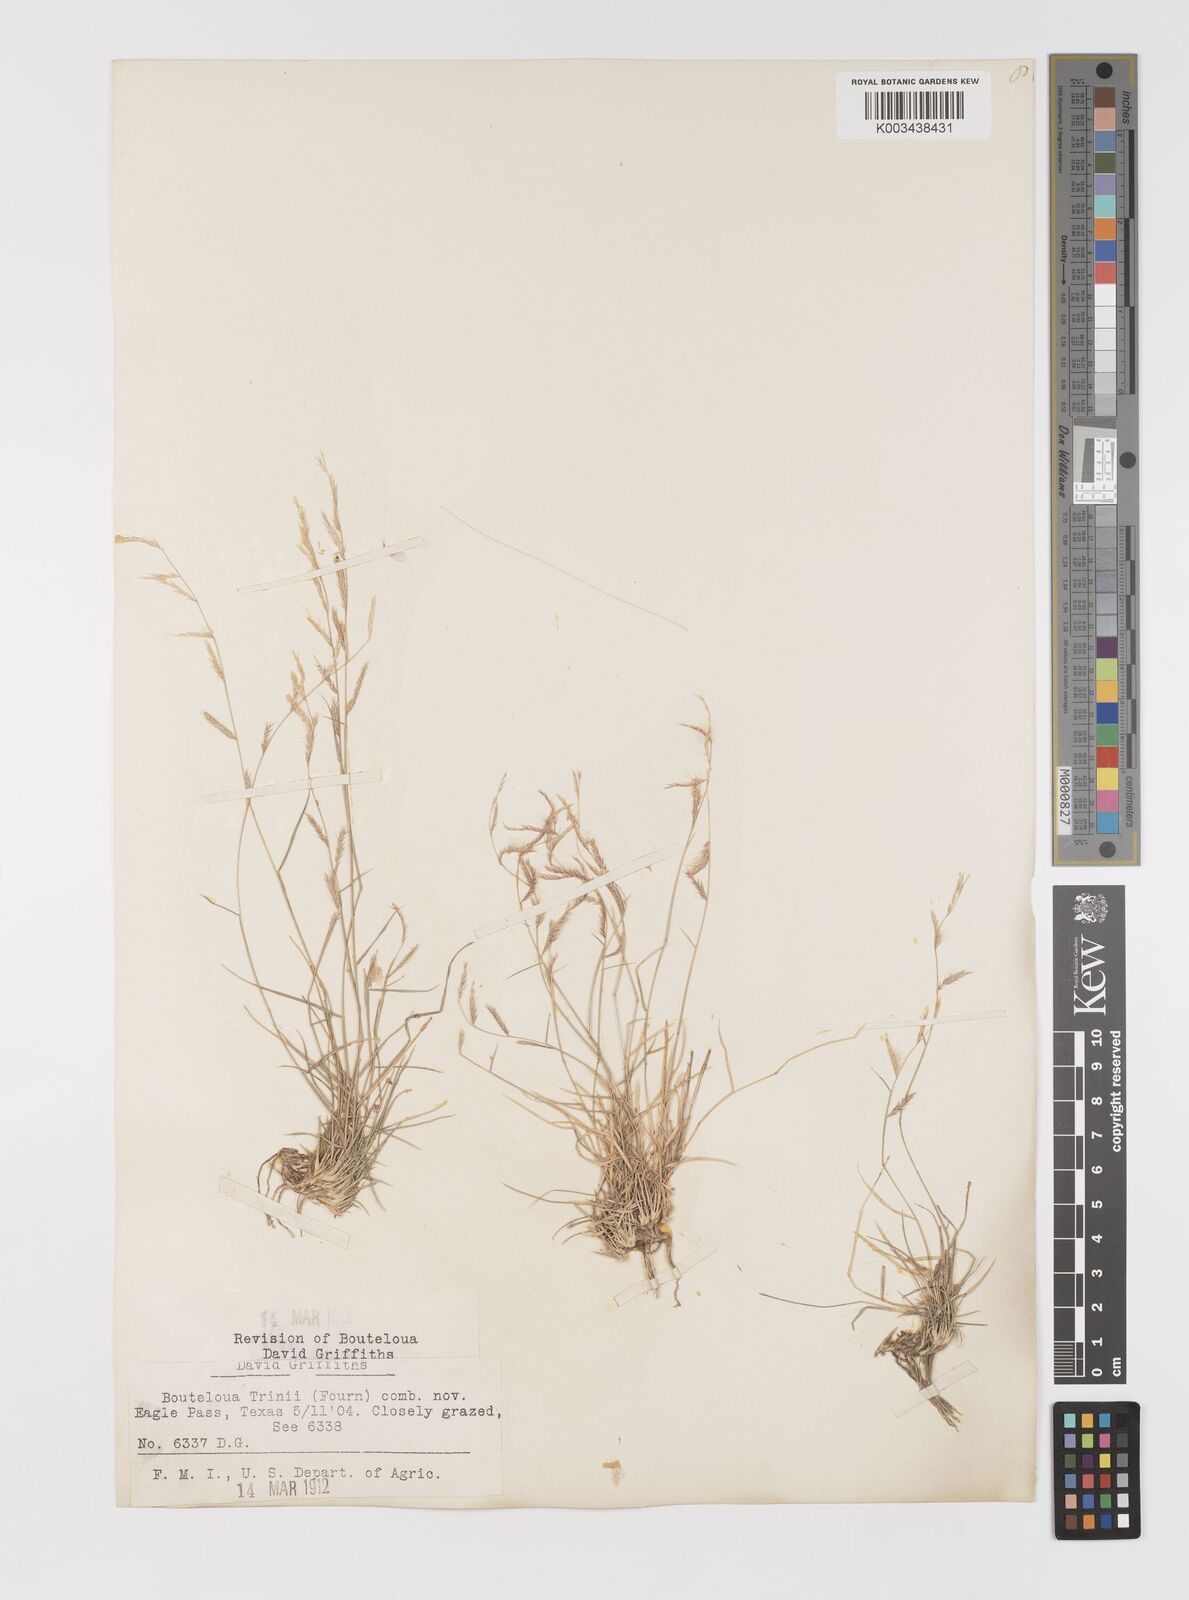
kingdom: Plantae
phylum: Tracheophyta
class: Liliopsida
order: Poales
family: Poaceae
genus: Bouteloua
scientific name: Bouteloua trifida
